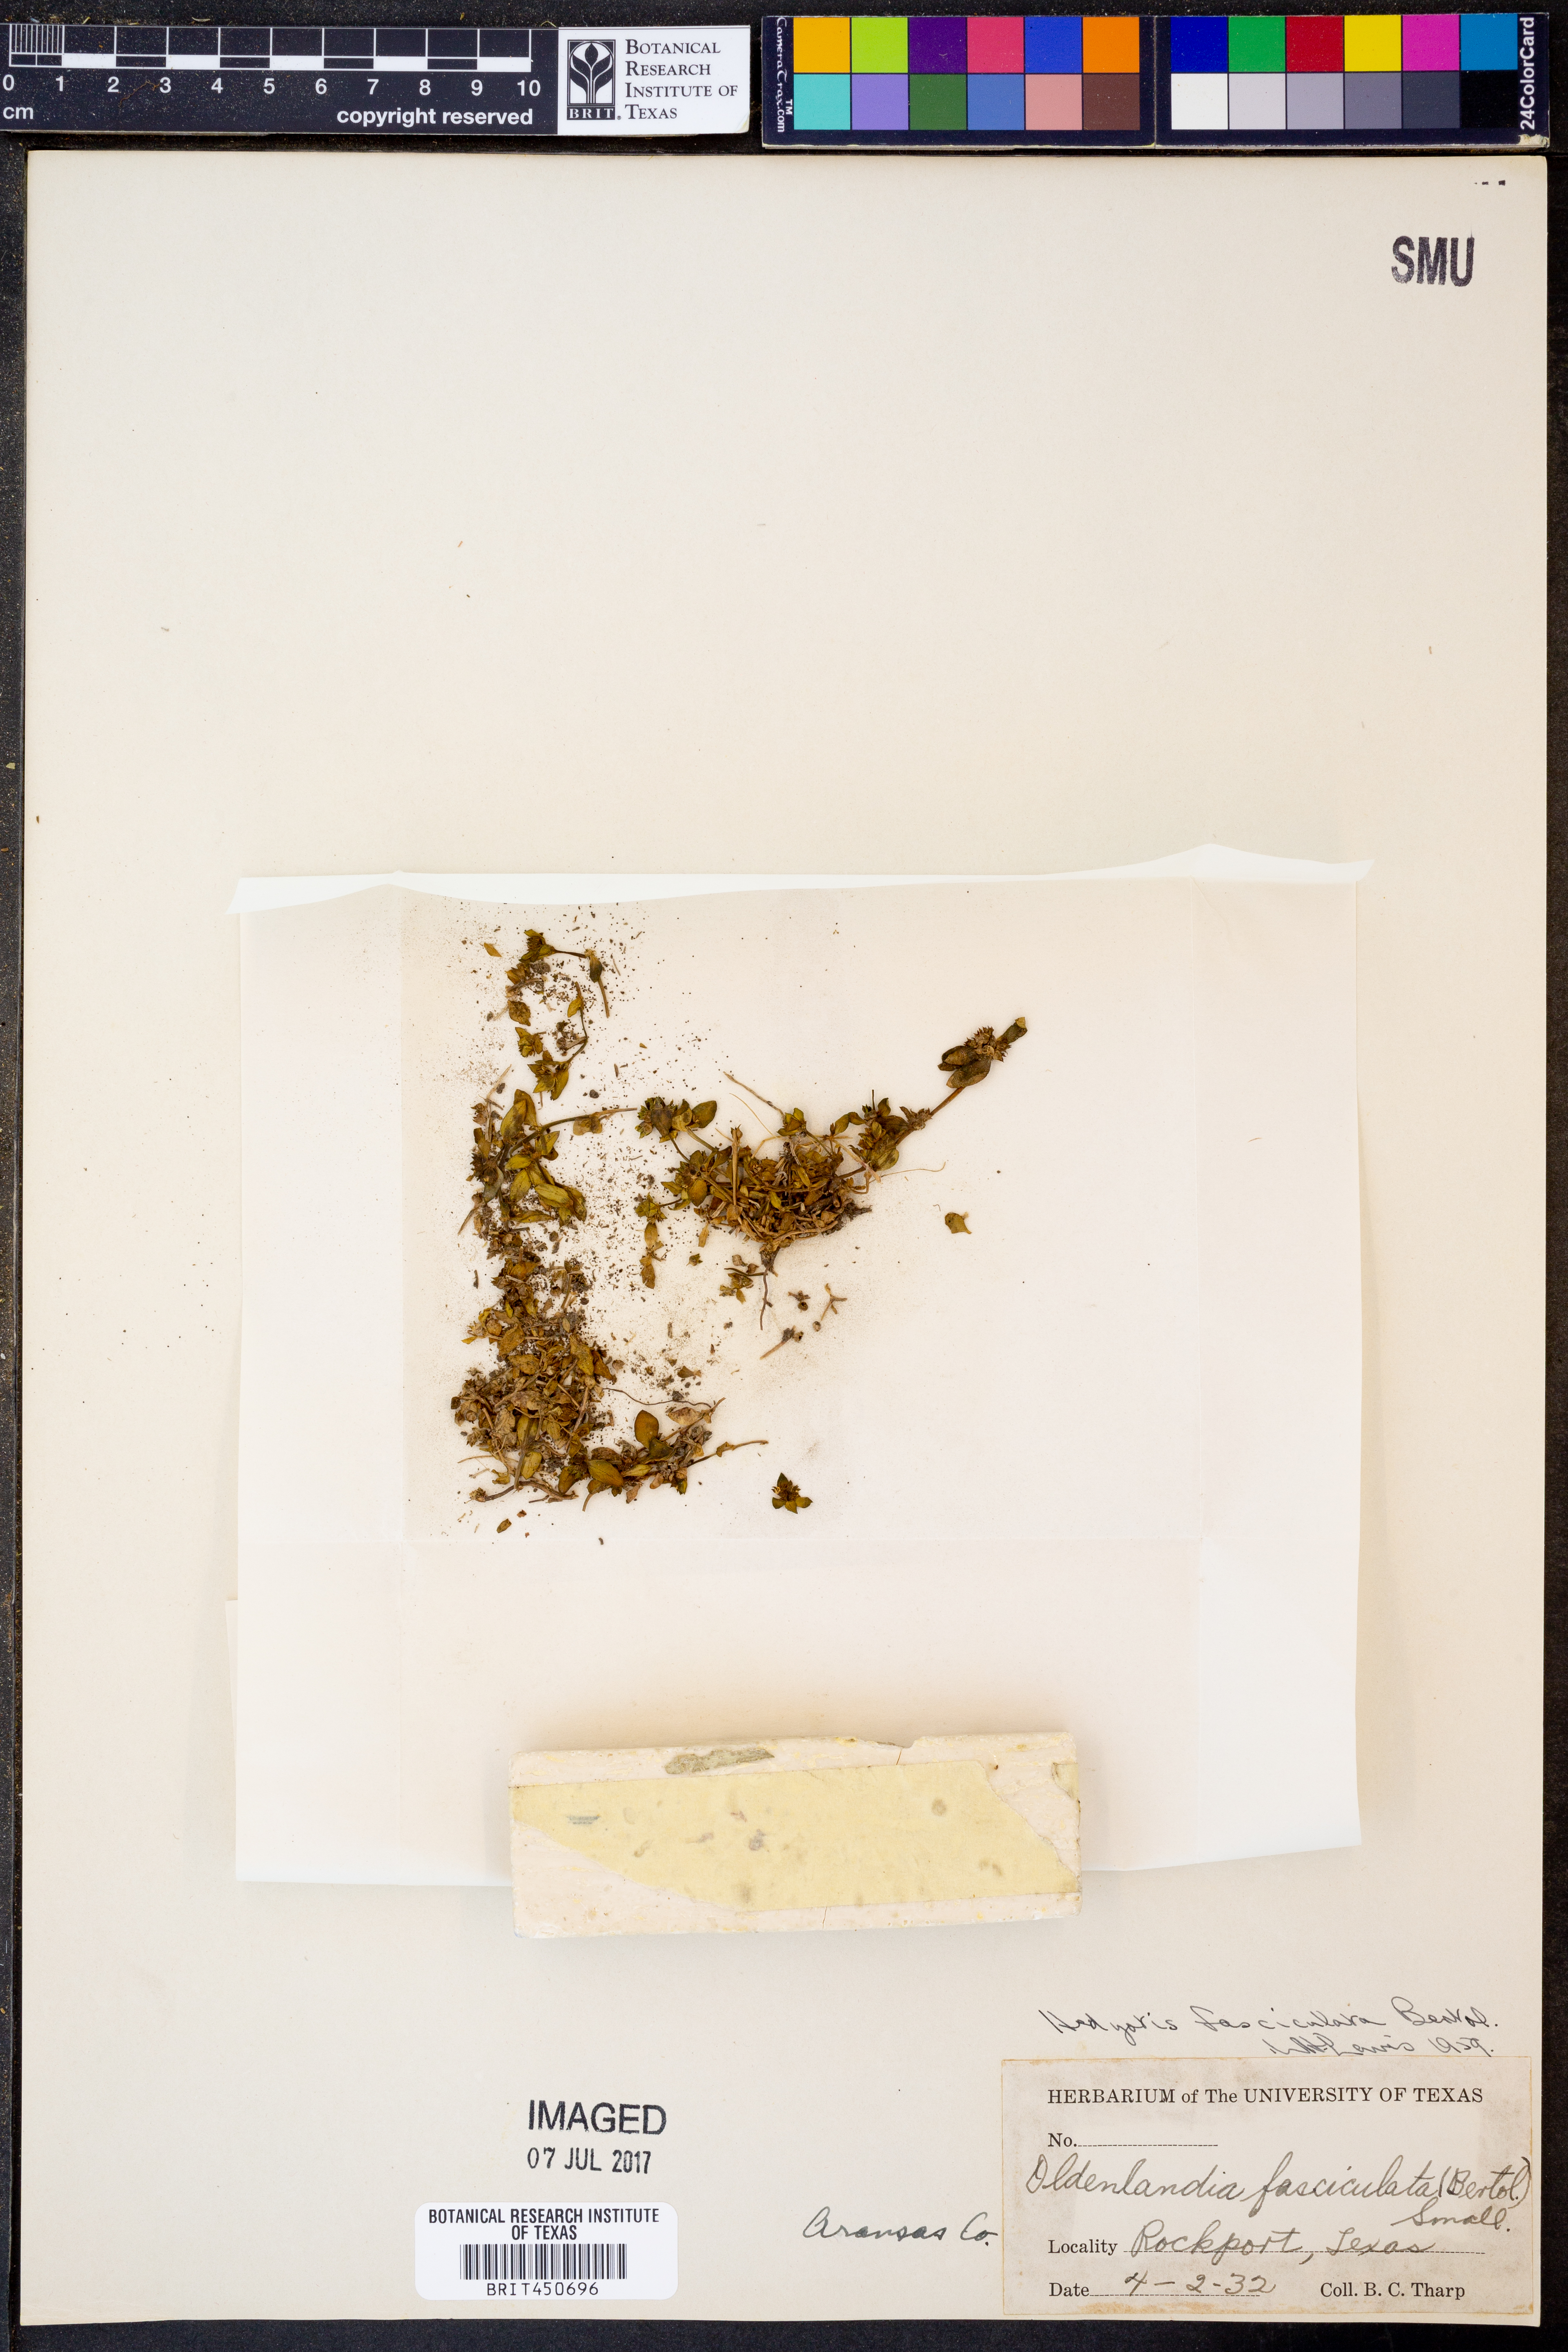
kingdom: Plantae
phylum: Tracheophyta
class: Magnoliopsida
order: Gentianales
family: Rubiaceae
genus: Edrastima
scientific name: Edrastima uniflora
